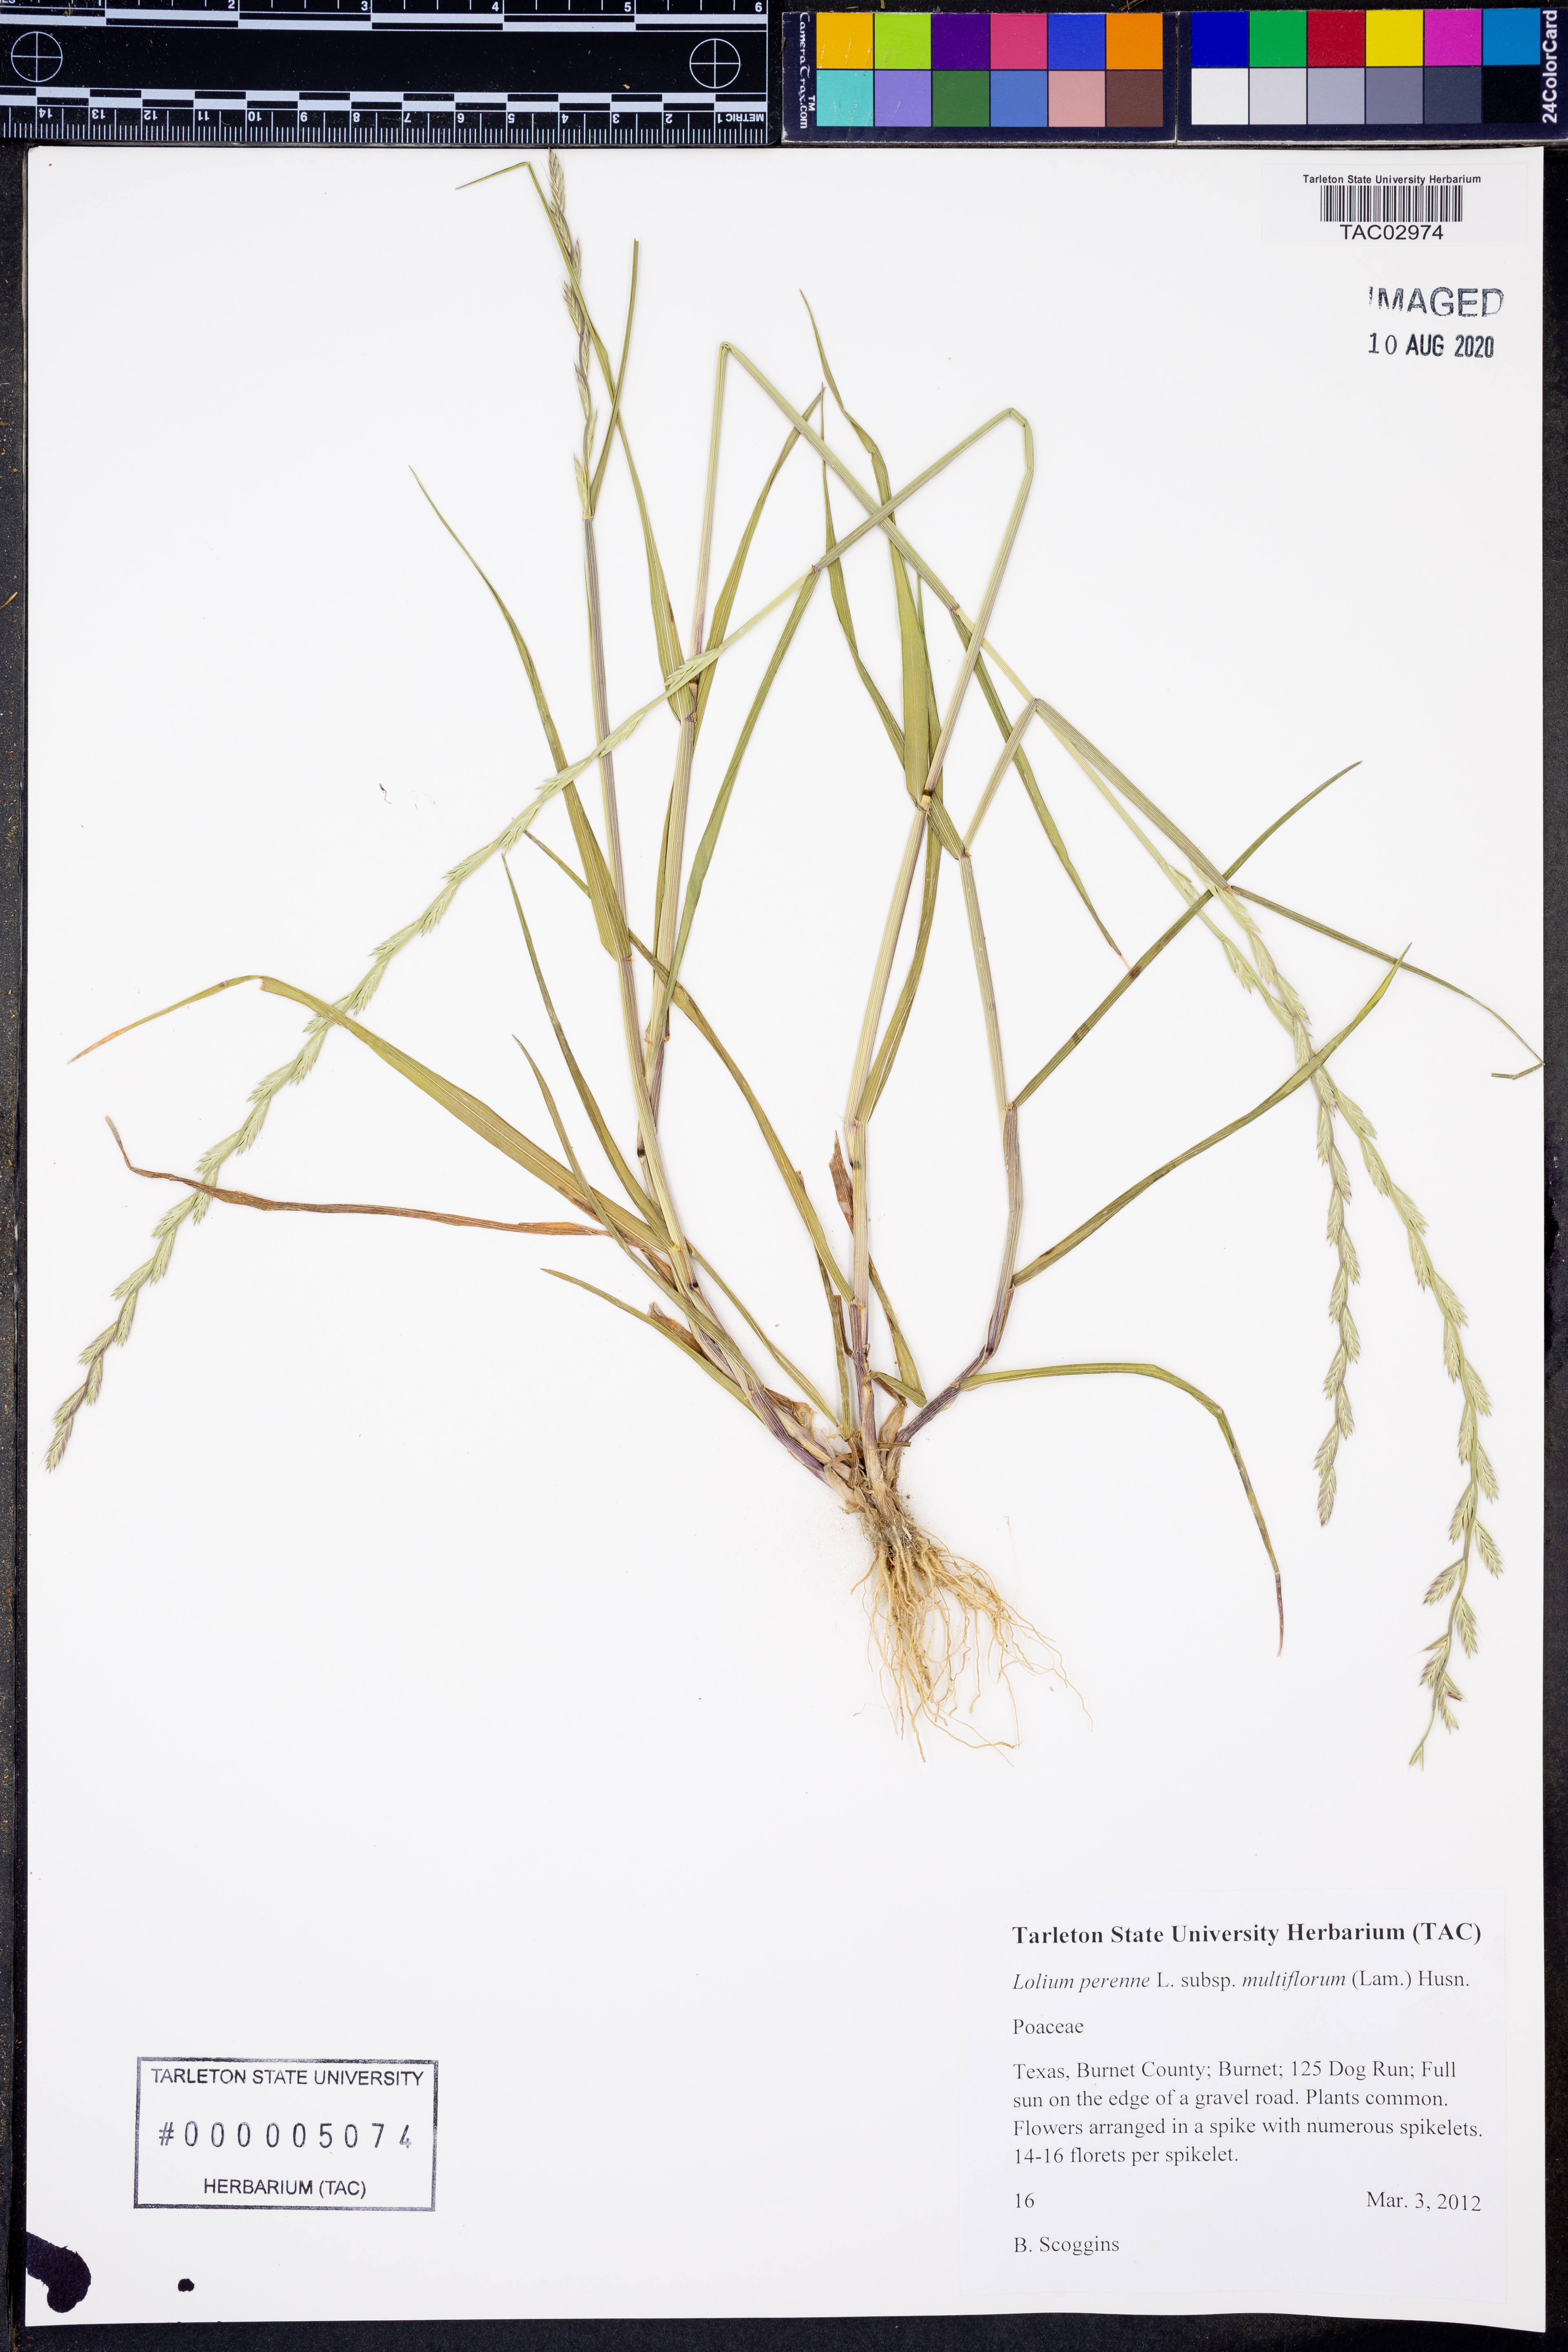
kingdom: Plantae
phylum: Tracheophyta
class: Liliopsida
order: Poales
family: Poaceae
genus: Lolium
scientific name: Lolium multiflorum
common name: Annual ryegrass
